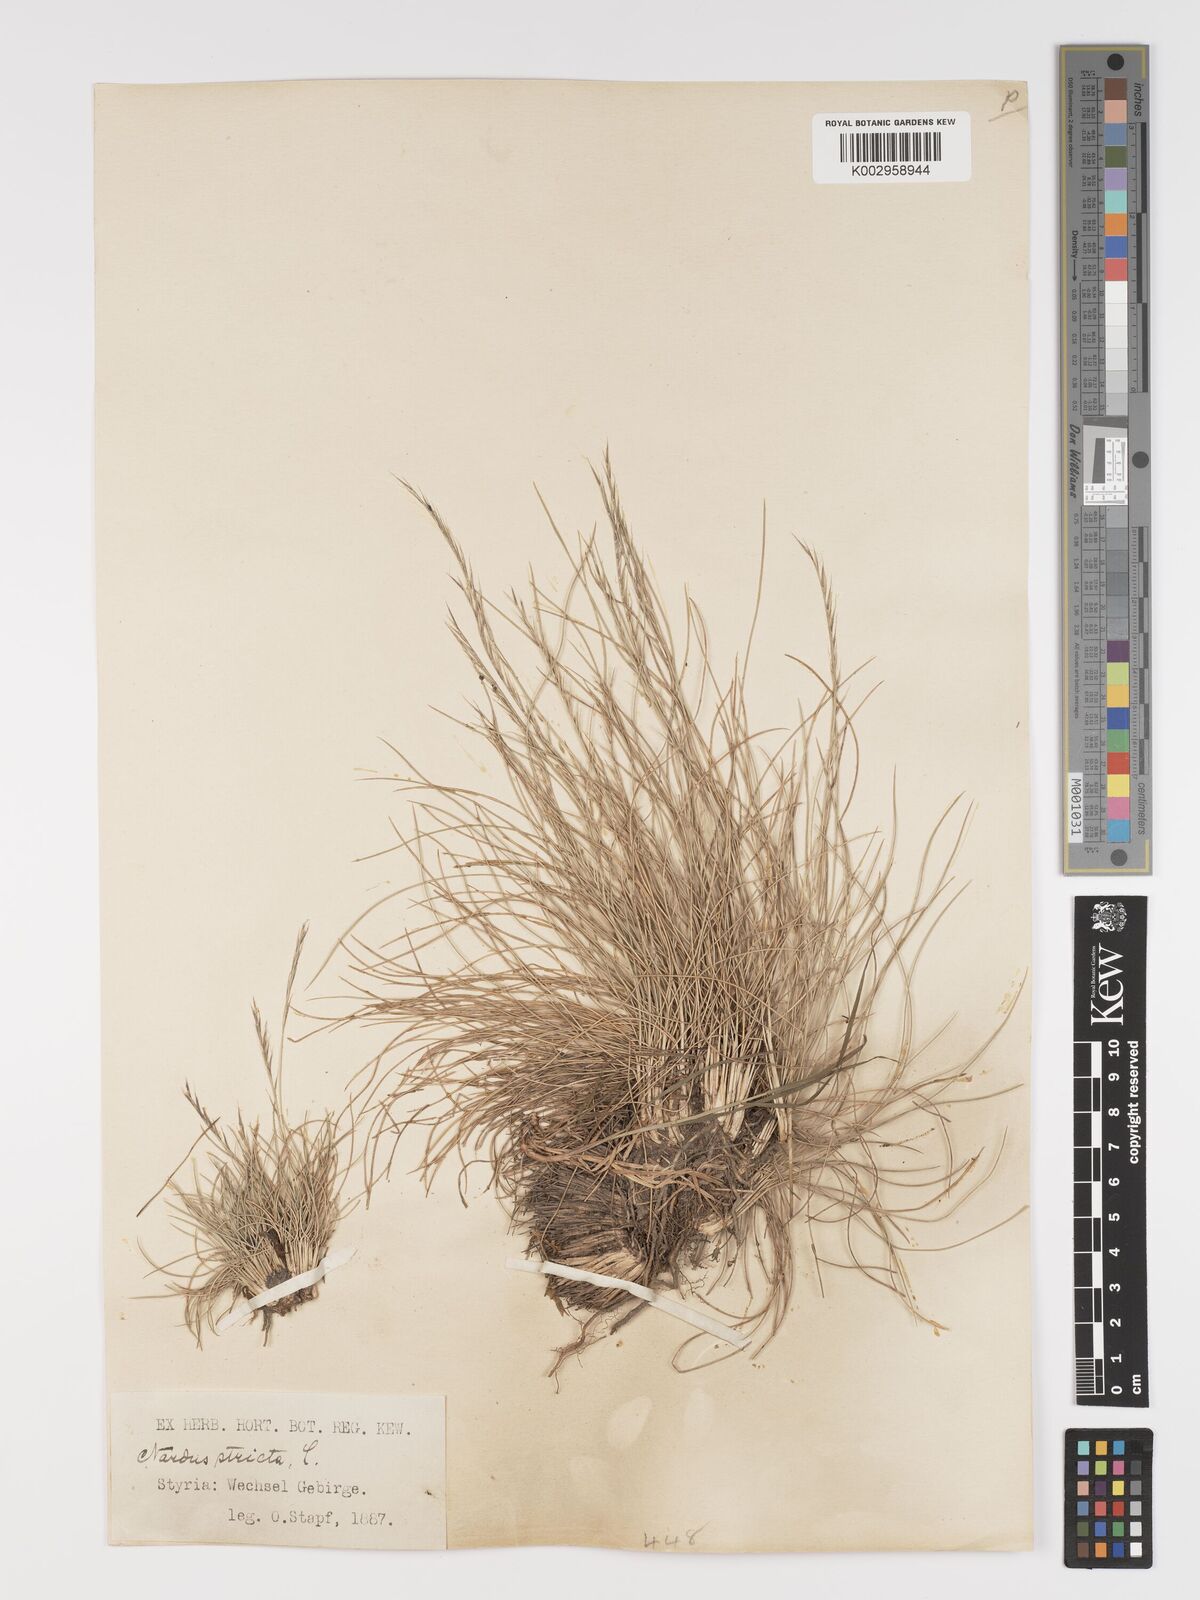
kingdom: Plantae
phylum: Tracheophyta
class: Liliopsida
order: Poales
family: Poaceae
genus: Nardus
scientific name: Nardus stricta
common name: Mat-grass
